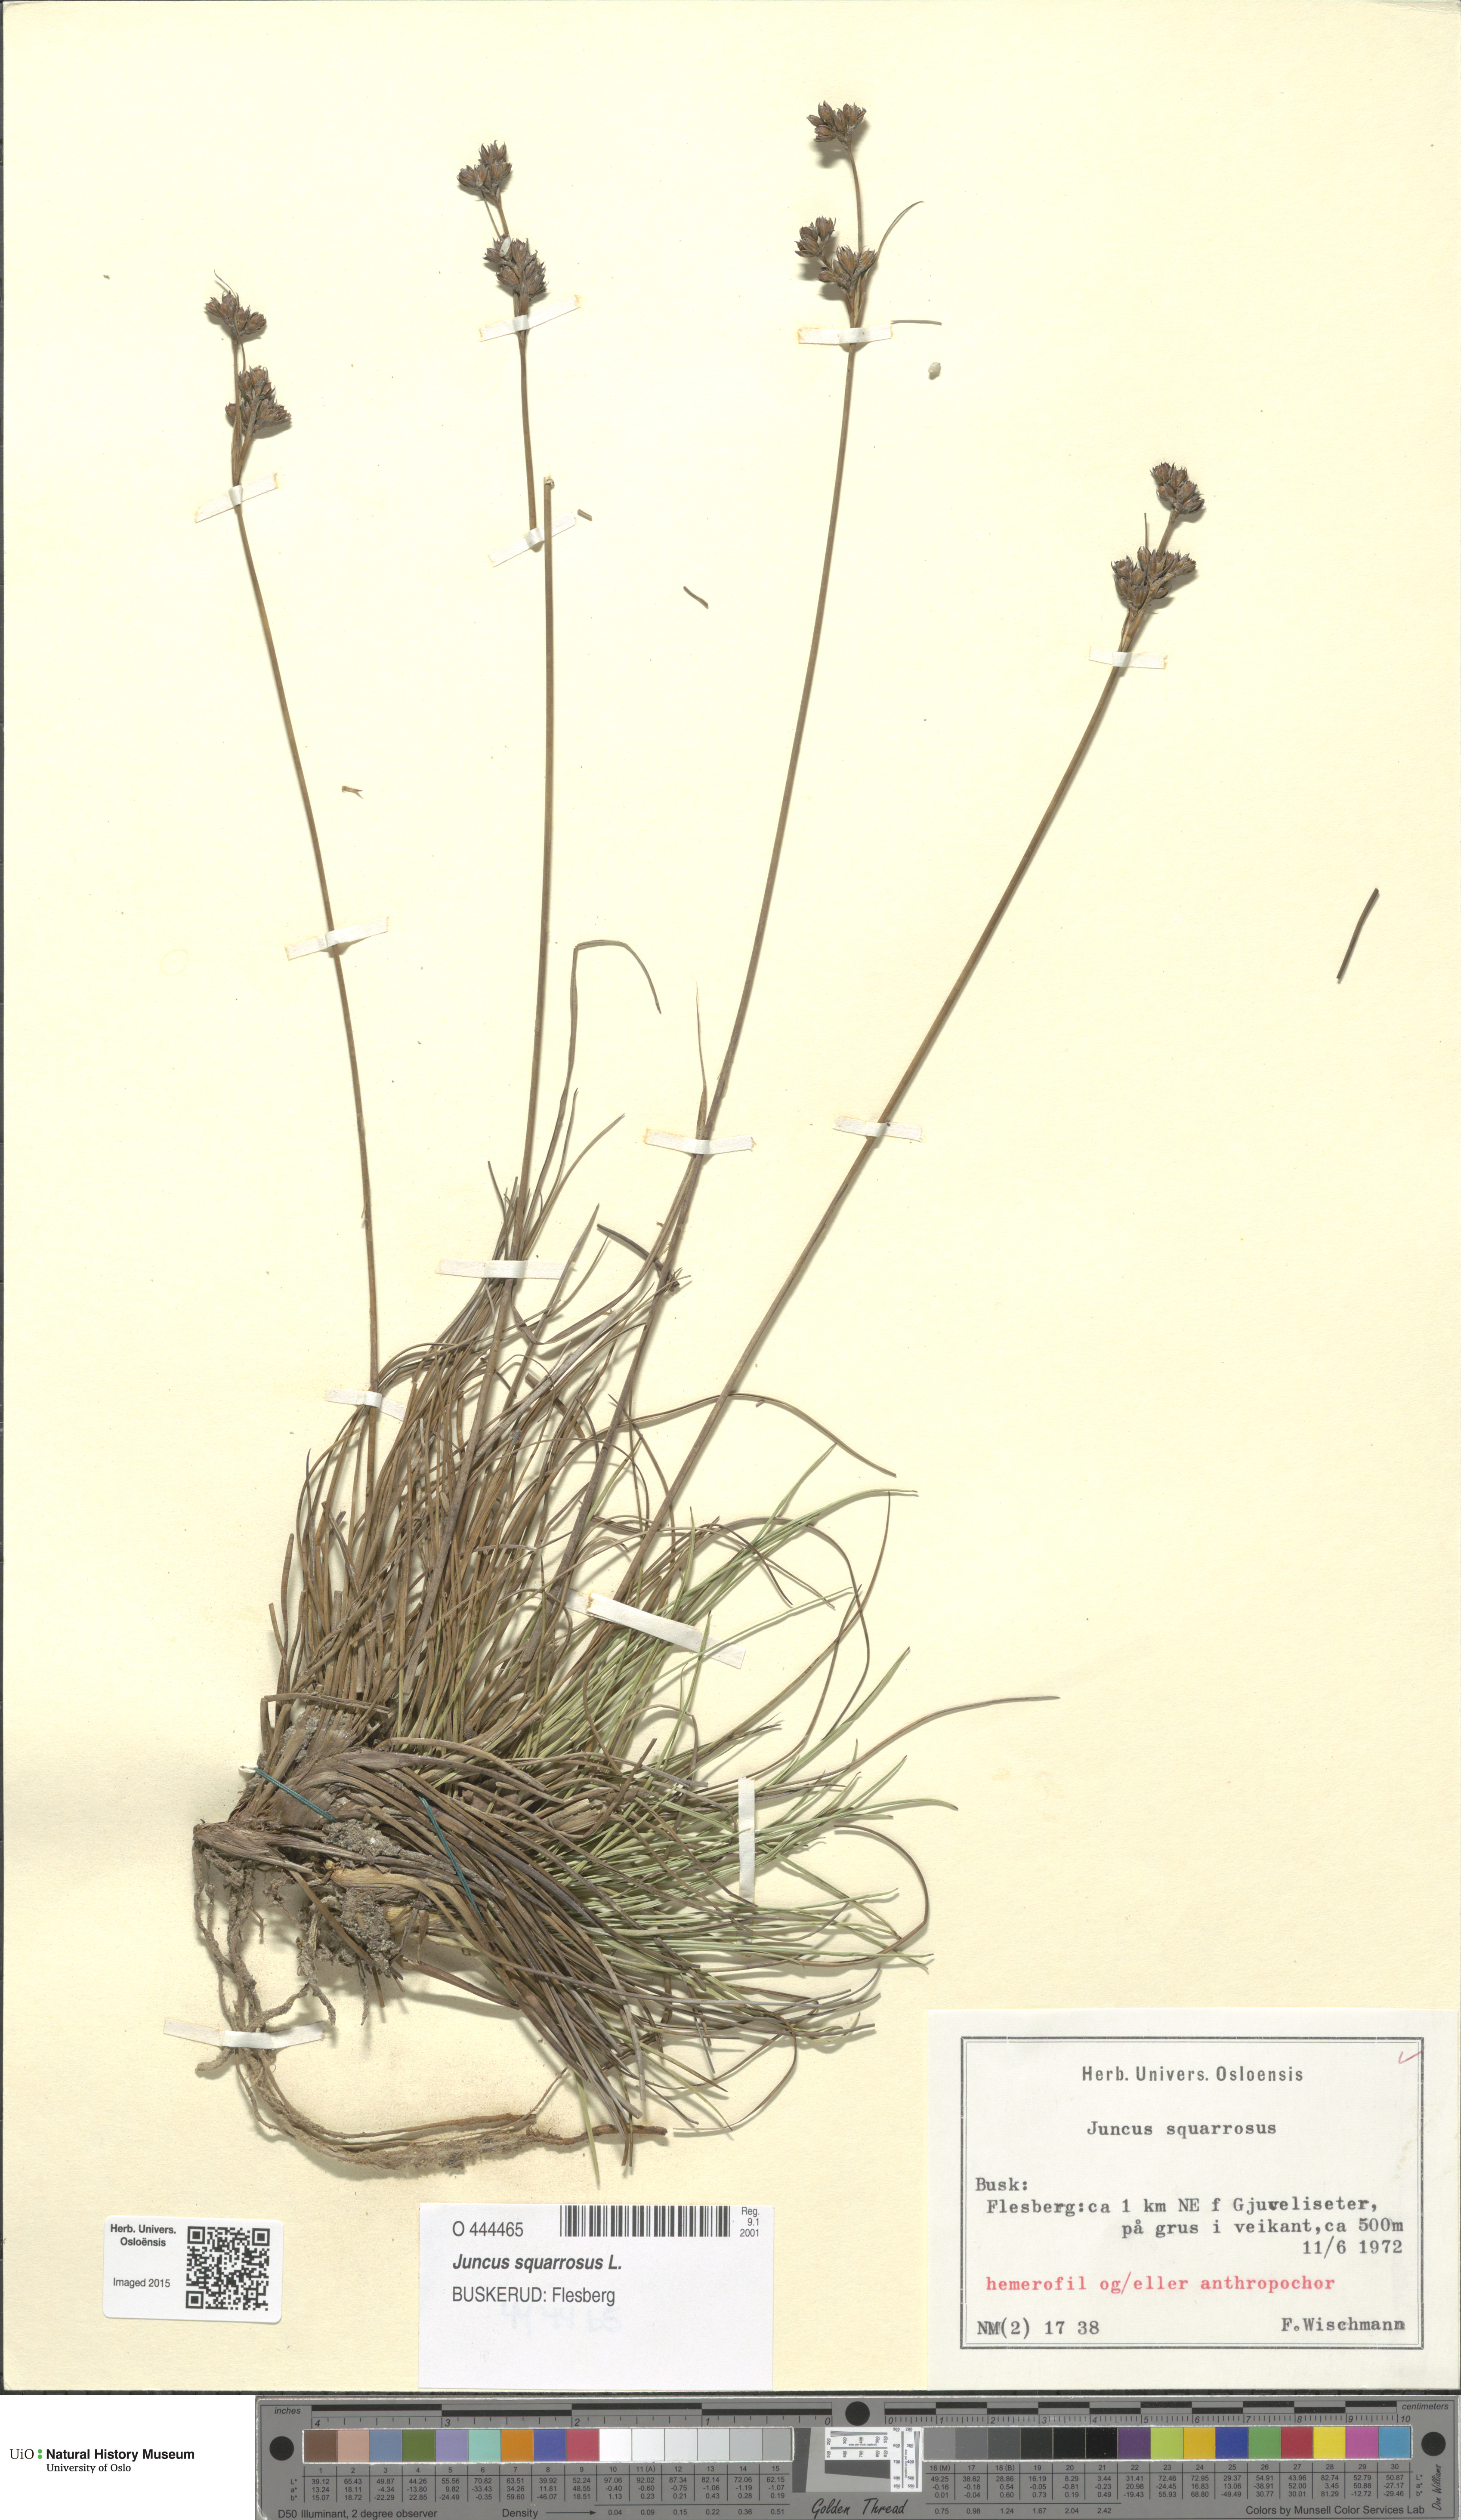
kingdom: Plantae
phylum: Tracheophyta
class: Liliopsida
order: Poales
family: Juncaceae
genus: Juncus
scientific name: Juncus squarrosus
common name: Heath rush
